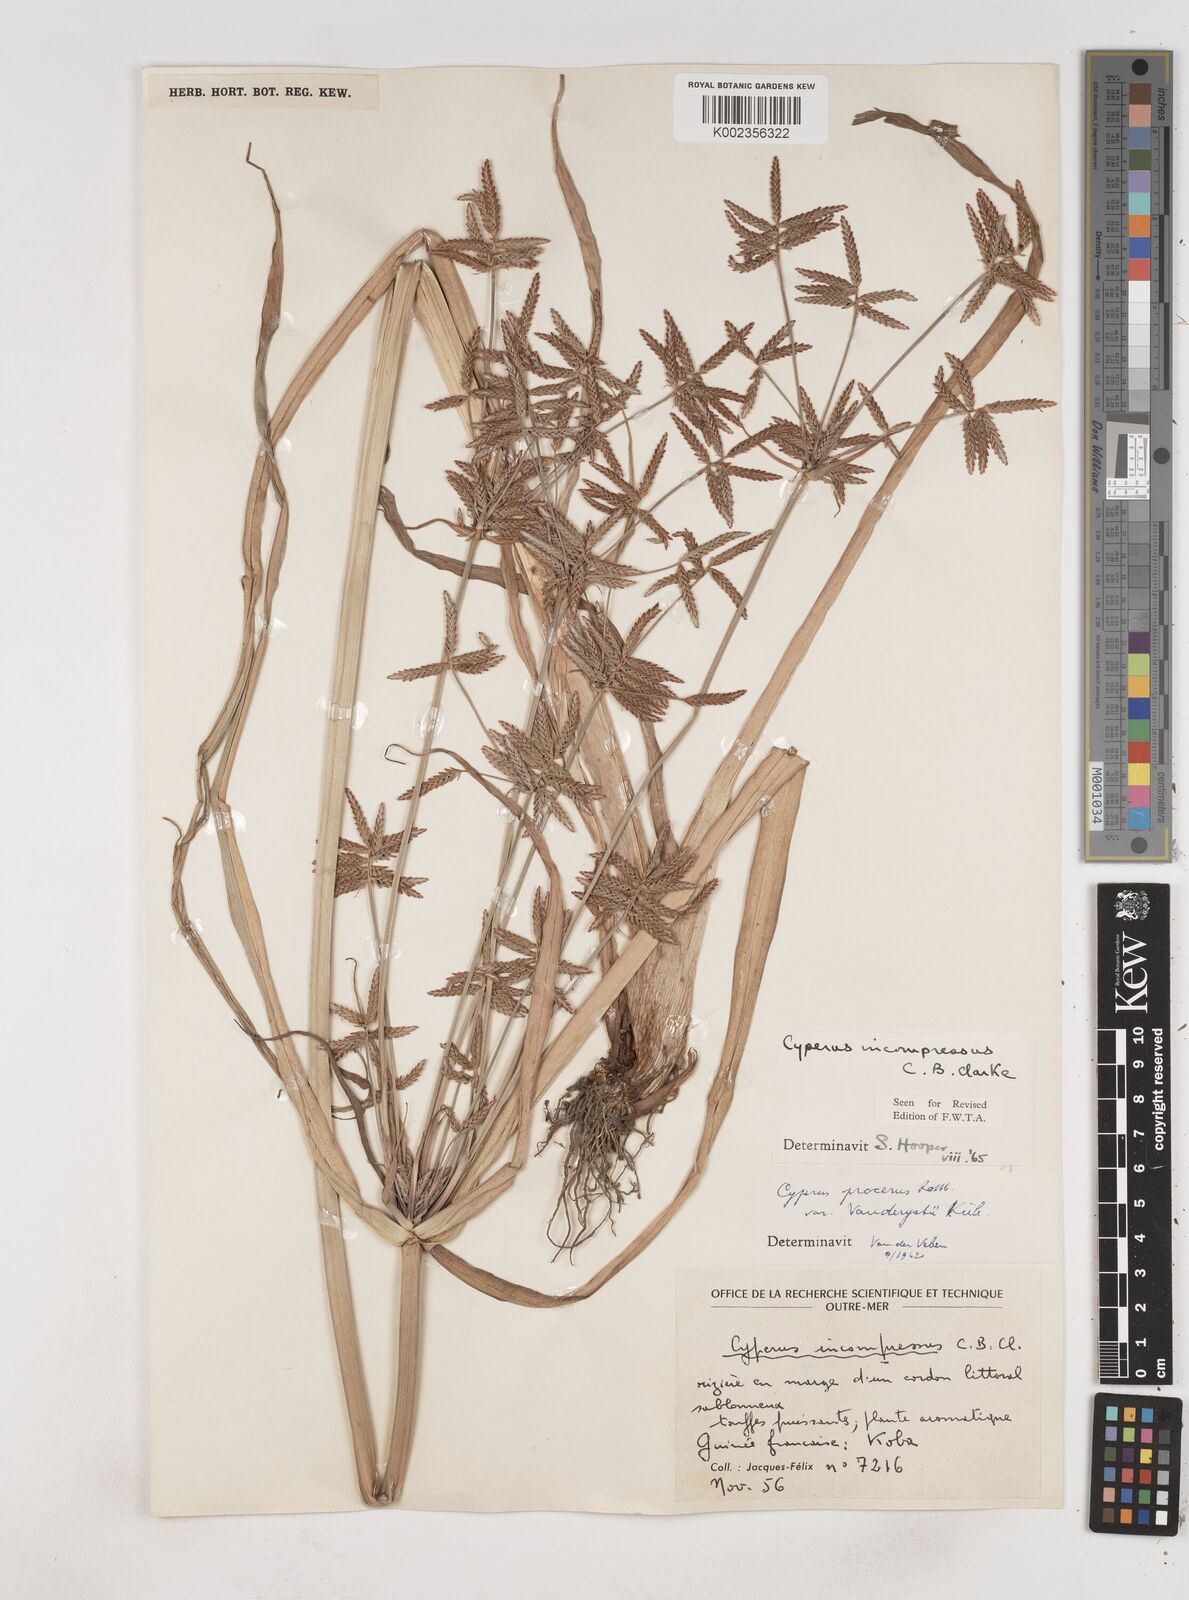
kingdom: Plantae
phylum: Tracheophyta
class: Liliopsida
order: Poales
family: Cyperaceae
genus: Cyperus
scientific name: Cyperus incompressus
